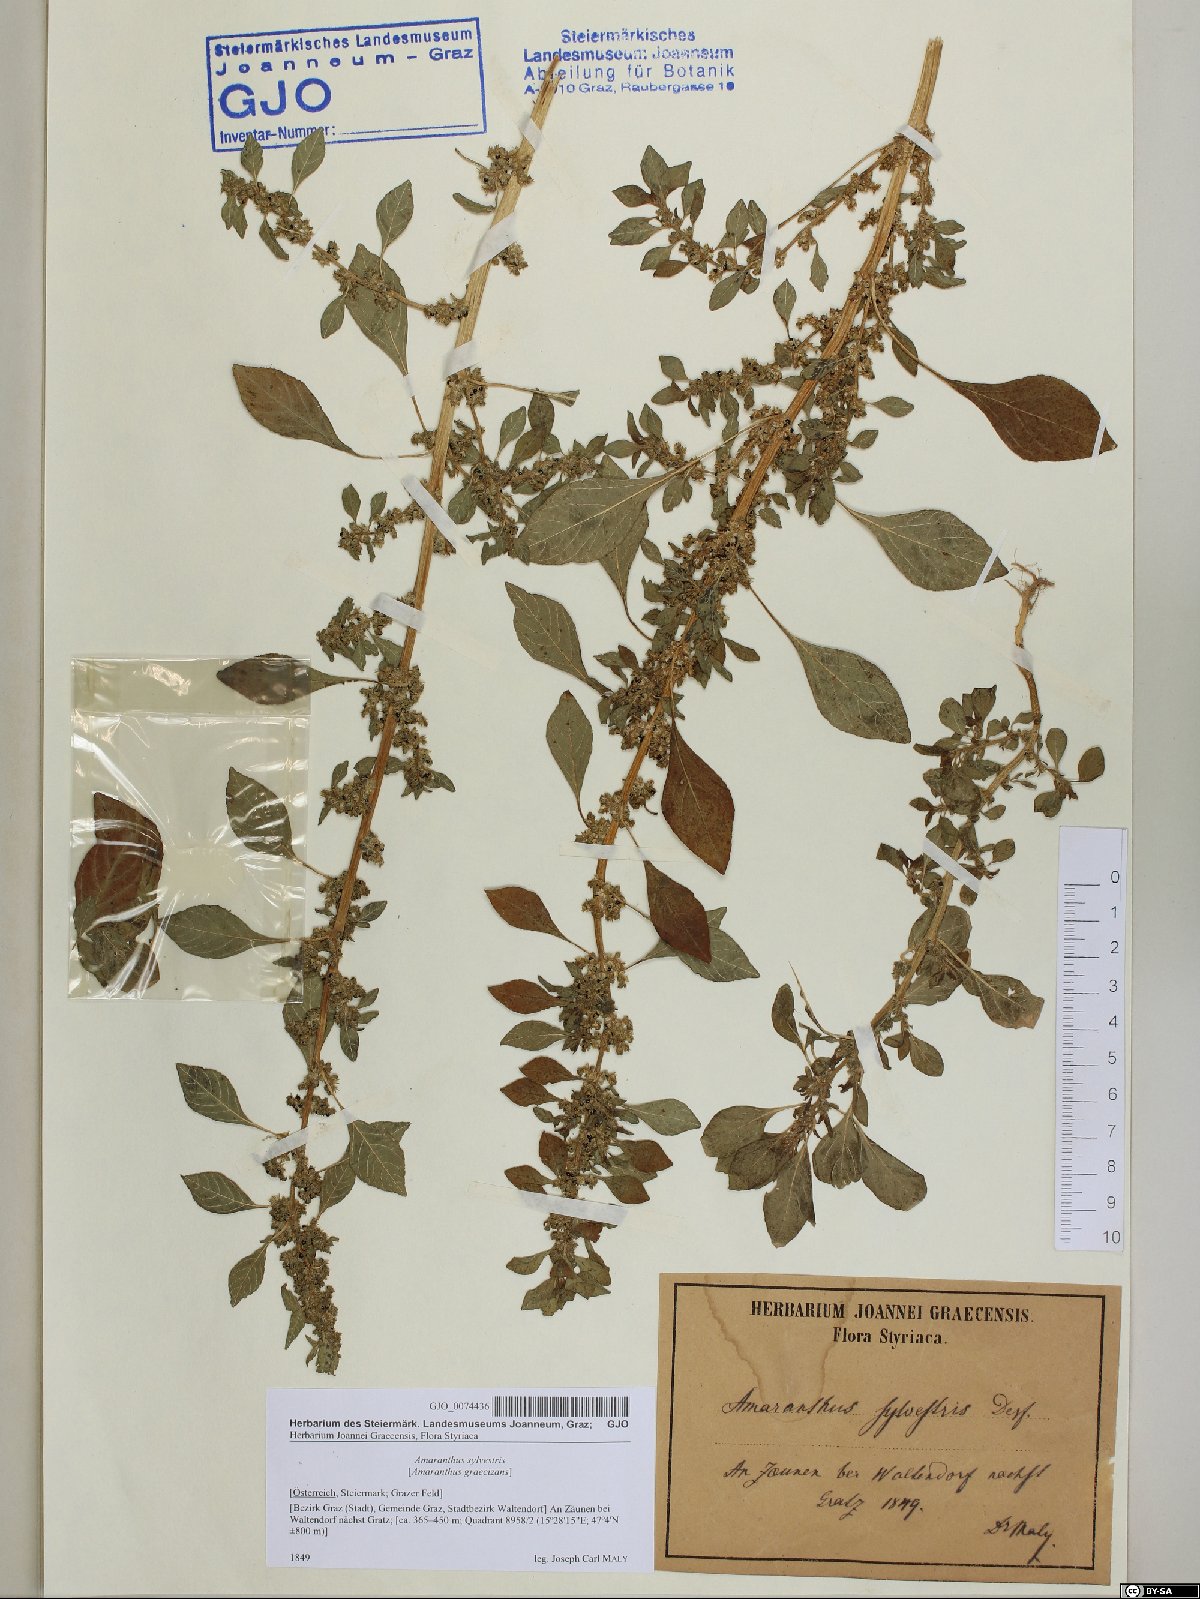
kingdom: Plantae
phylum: Tracheophyta
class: Magnoliopsida
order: Caryophyllales
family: Amaranthaceae
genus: Amaranthus
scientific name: Amaranthus graecizans
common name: Mediterranean amaranth
